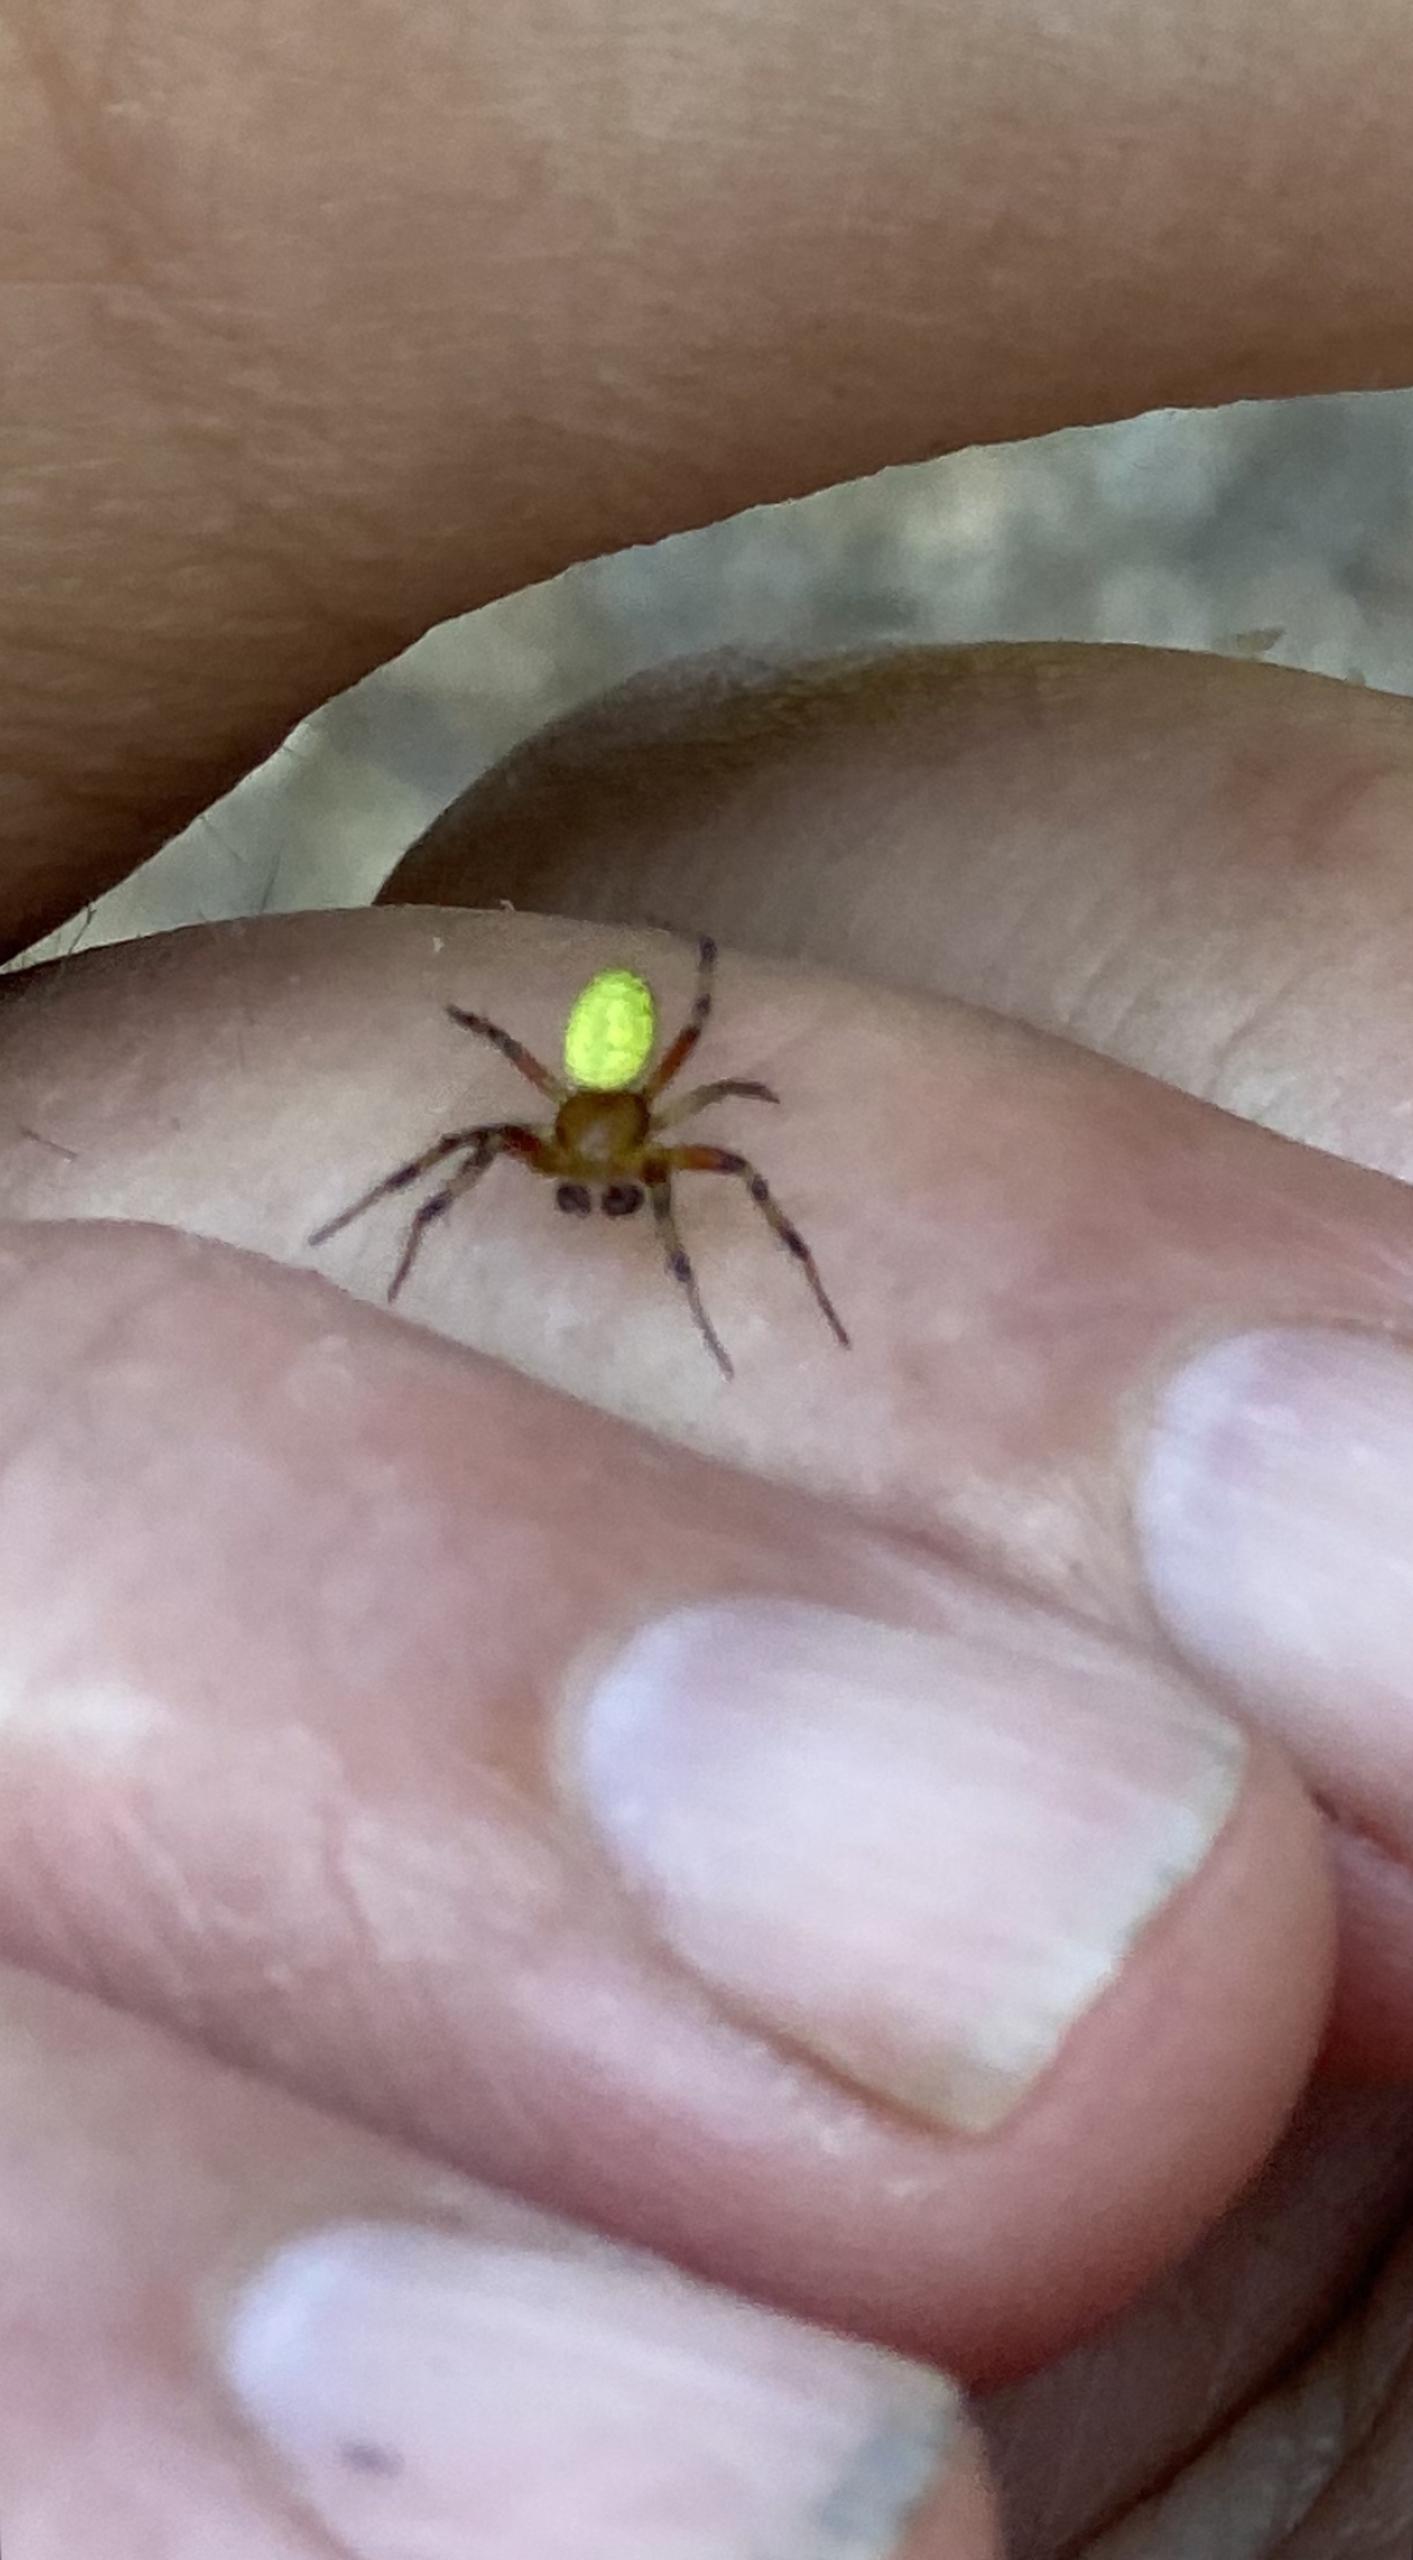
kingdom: Animalia
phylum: Arthropoda
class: Arachnida
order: Araneae
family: Araneidae
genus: Araniella
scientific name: Araniella
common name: Agurkeedderkopslægten
